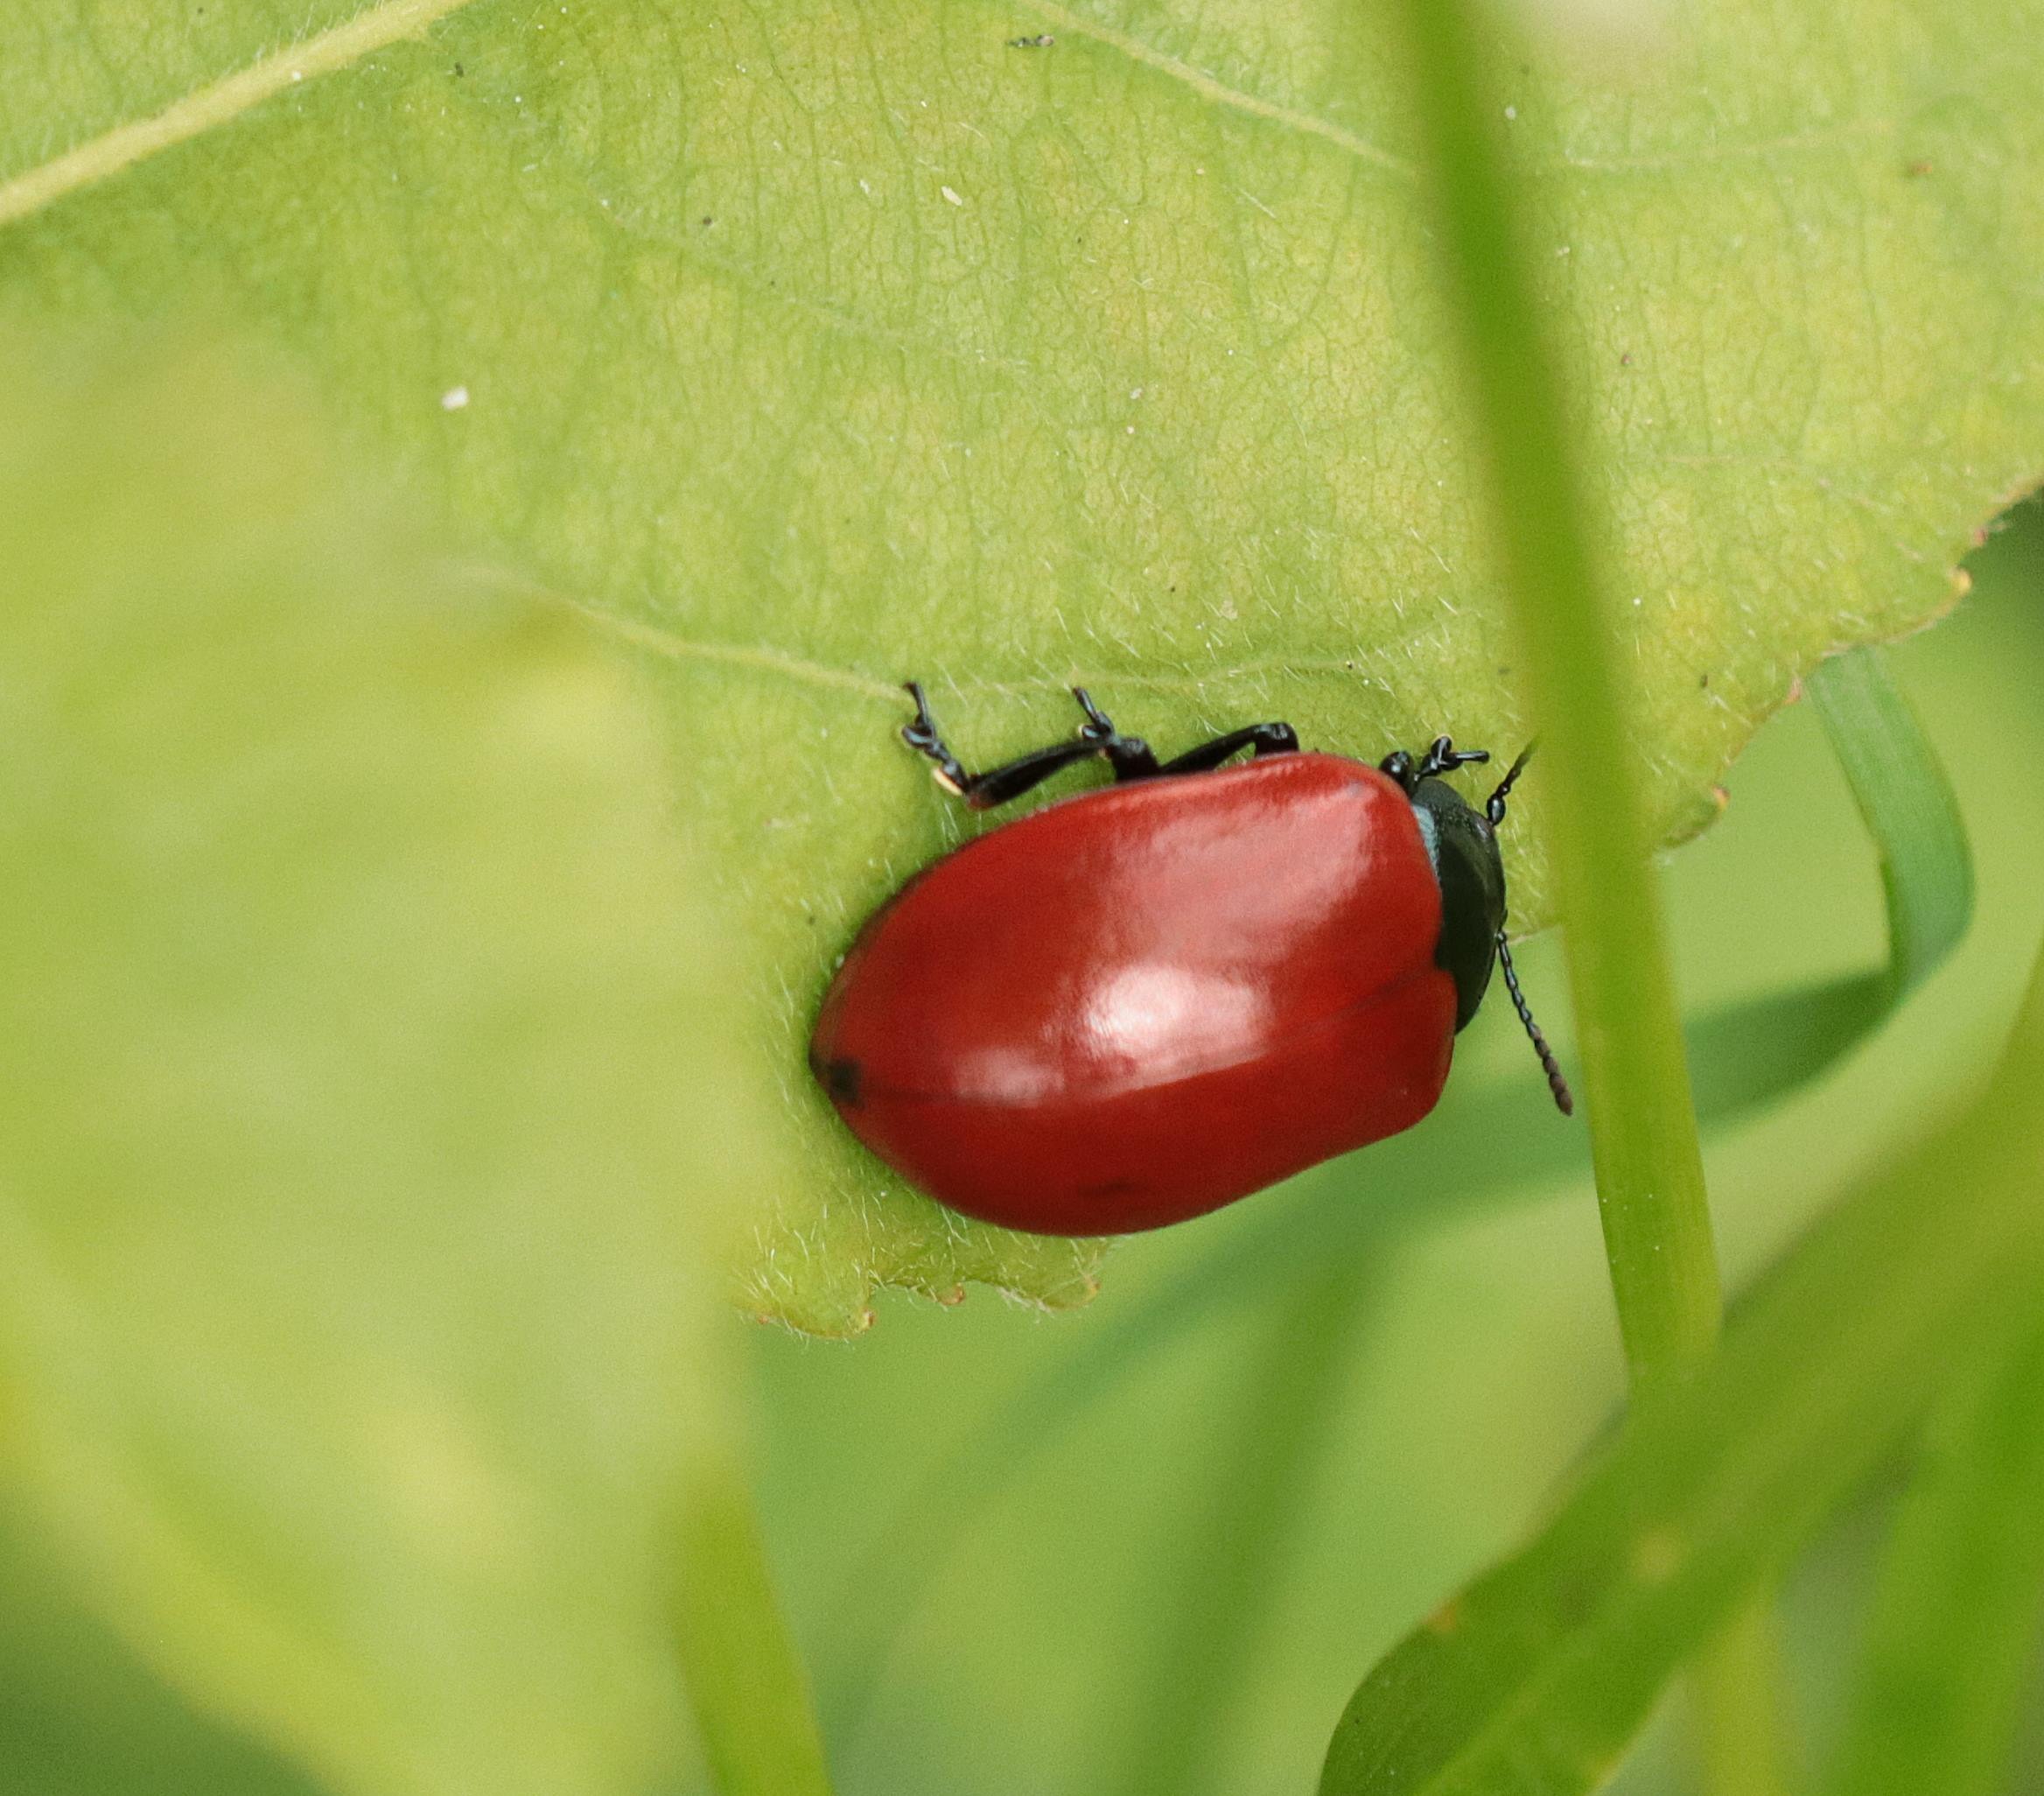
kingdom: Animalia
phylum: Arthropoda
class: Insecta
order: Coleoptera
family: Chrysomelidae
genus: Chrysomela
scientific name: Chrysomela populi
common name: Poppelbladbille
